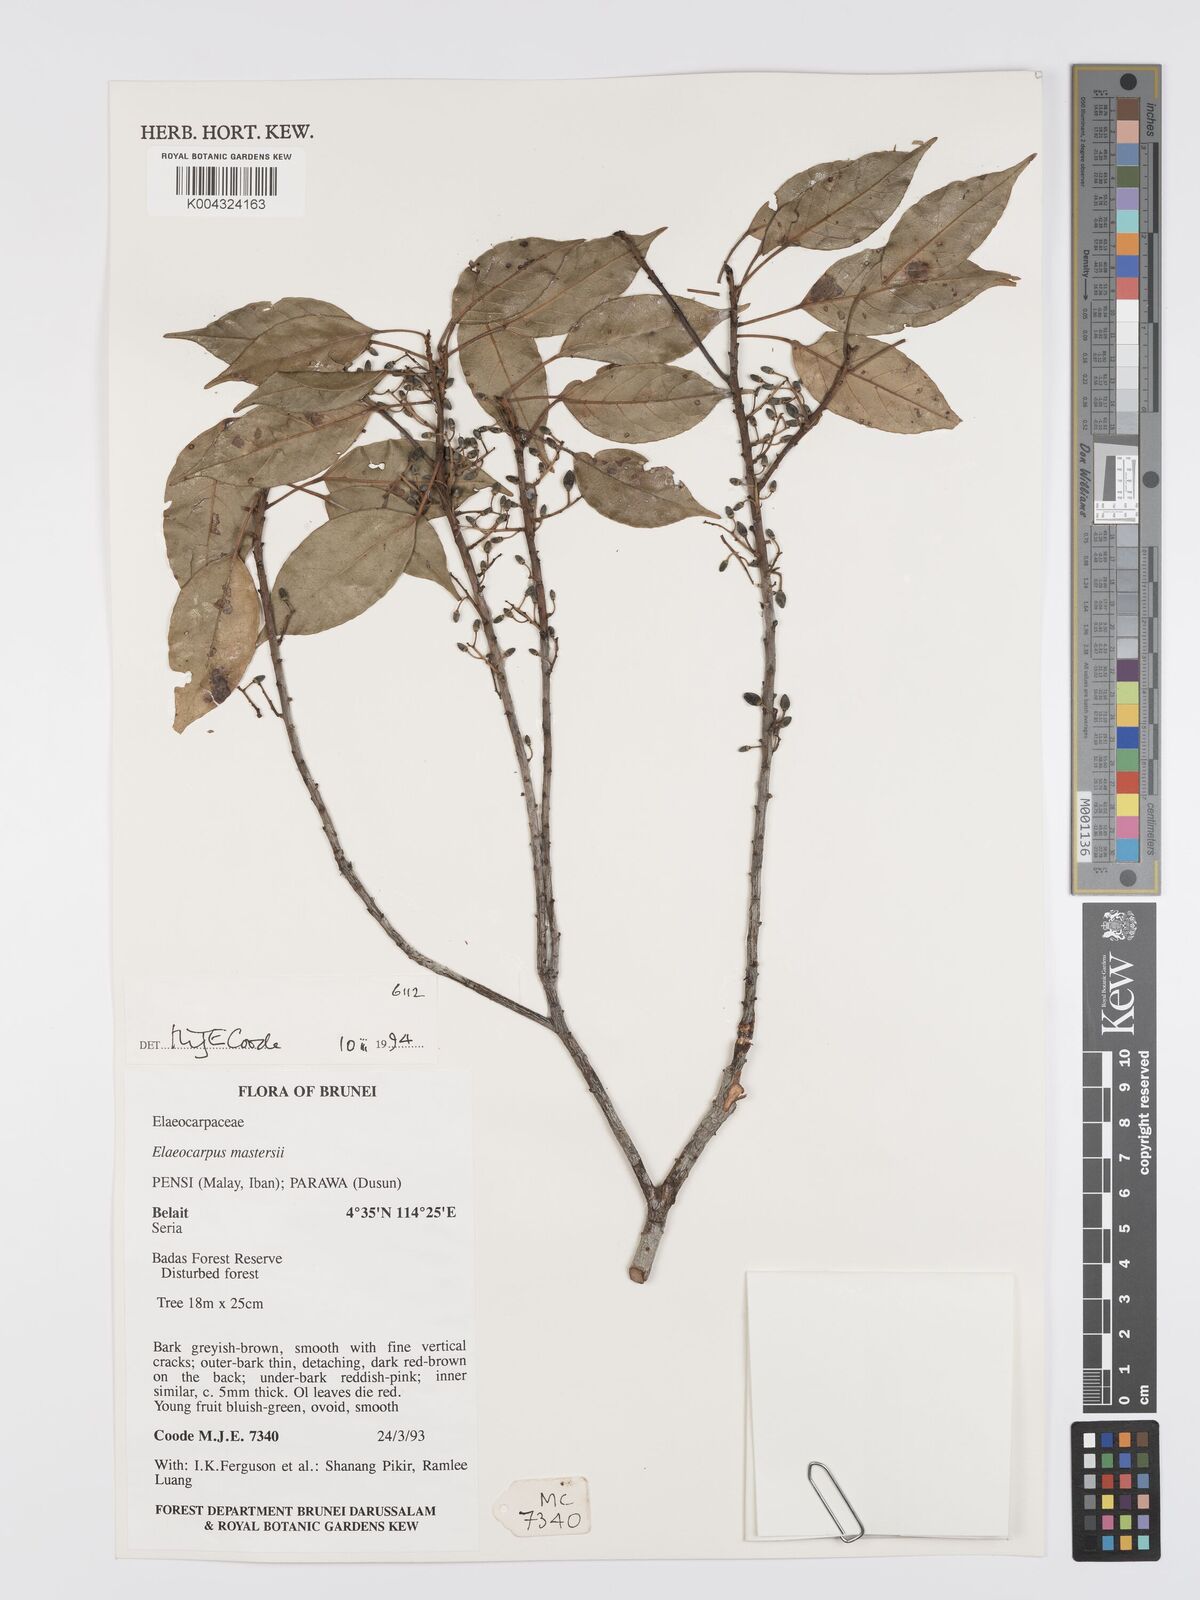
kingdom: Plantae
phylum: Tracheophyta
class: Magnoliopsida
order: Oxalidales
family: Elaeocarpaceae
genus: Elaeocarpus
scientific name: Elaeocarpus mastersii
